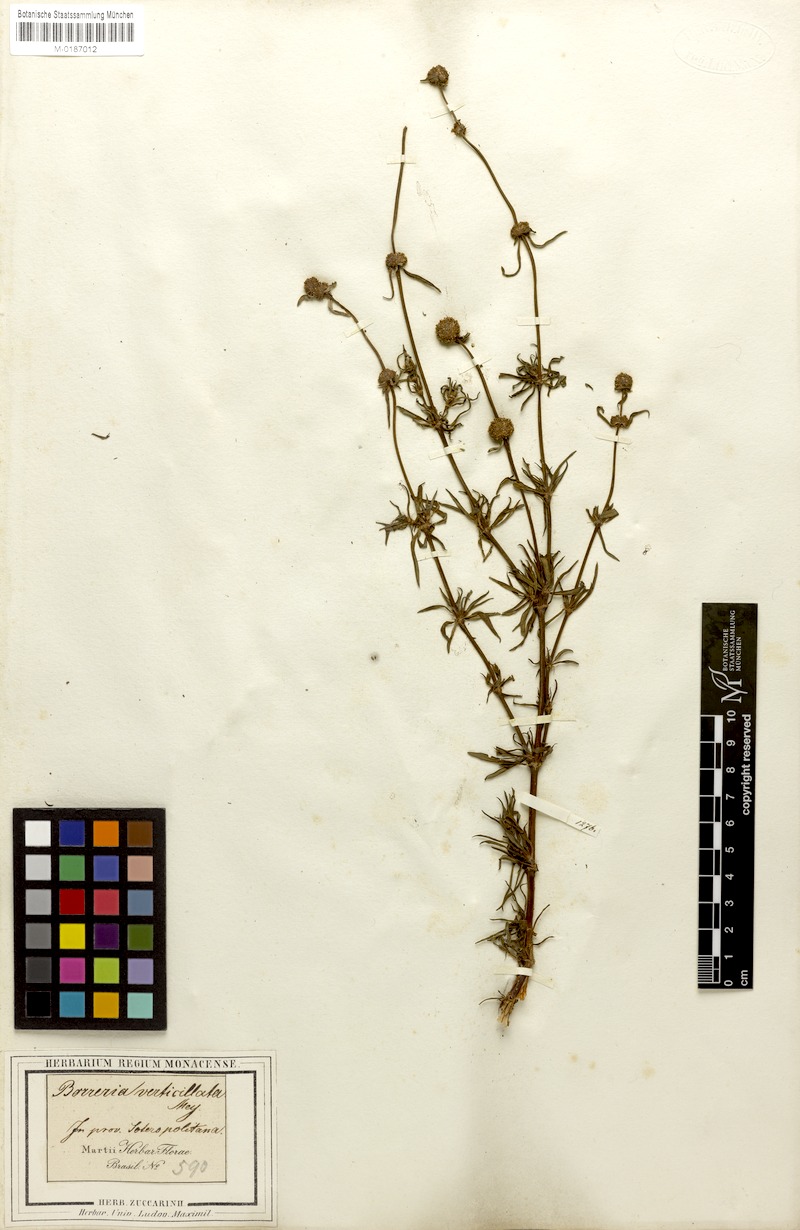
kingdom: Plantae
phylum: Tracheophyta
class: Magnoliopsida
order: Gentianales
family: Rubiaceae
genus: Spermacoce
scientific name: Spermacoce verticillata
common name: Shrubby false buttonweed
